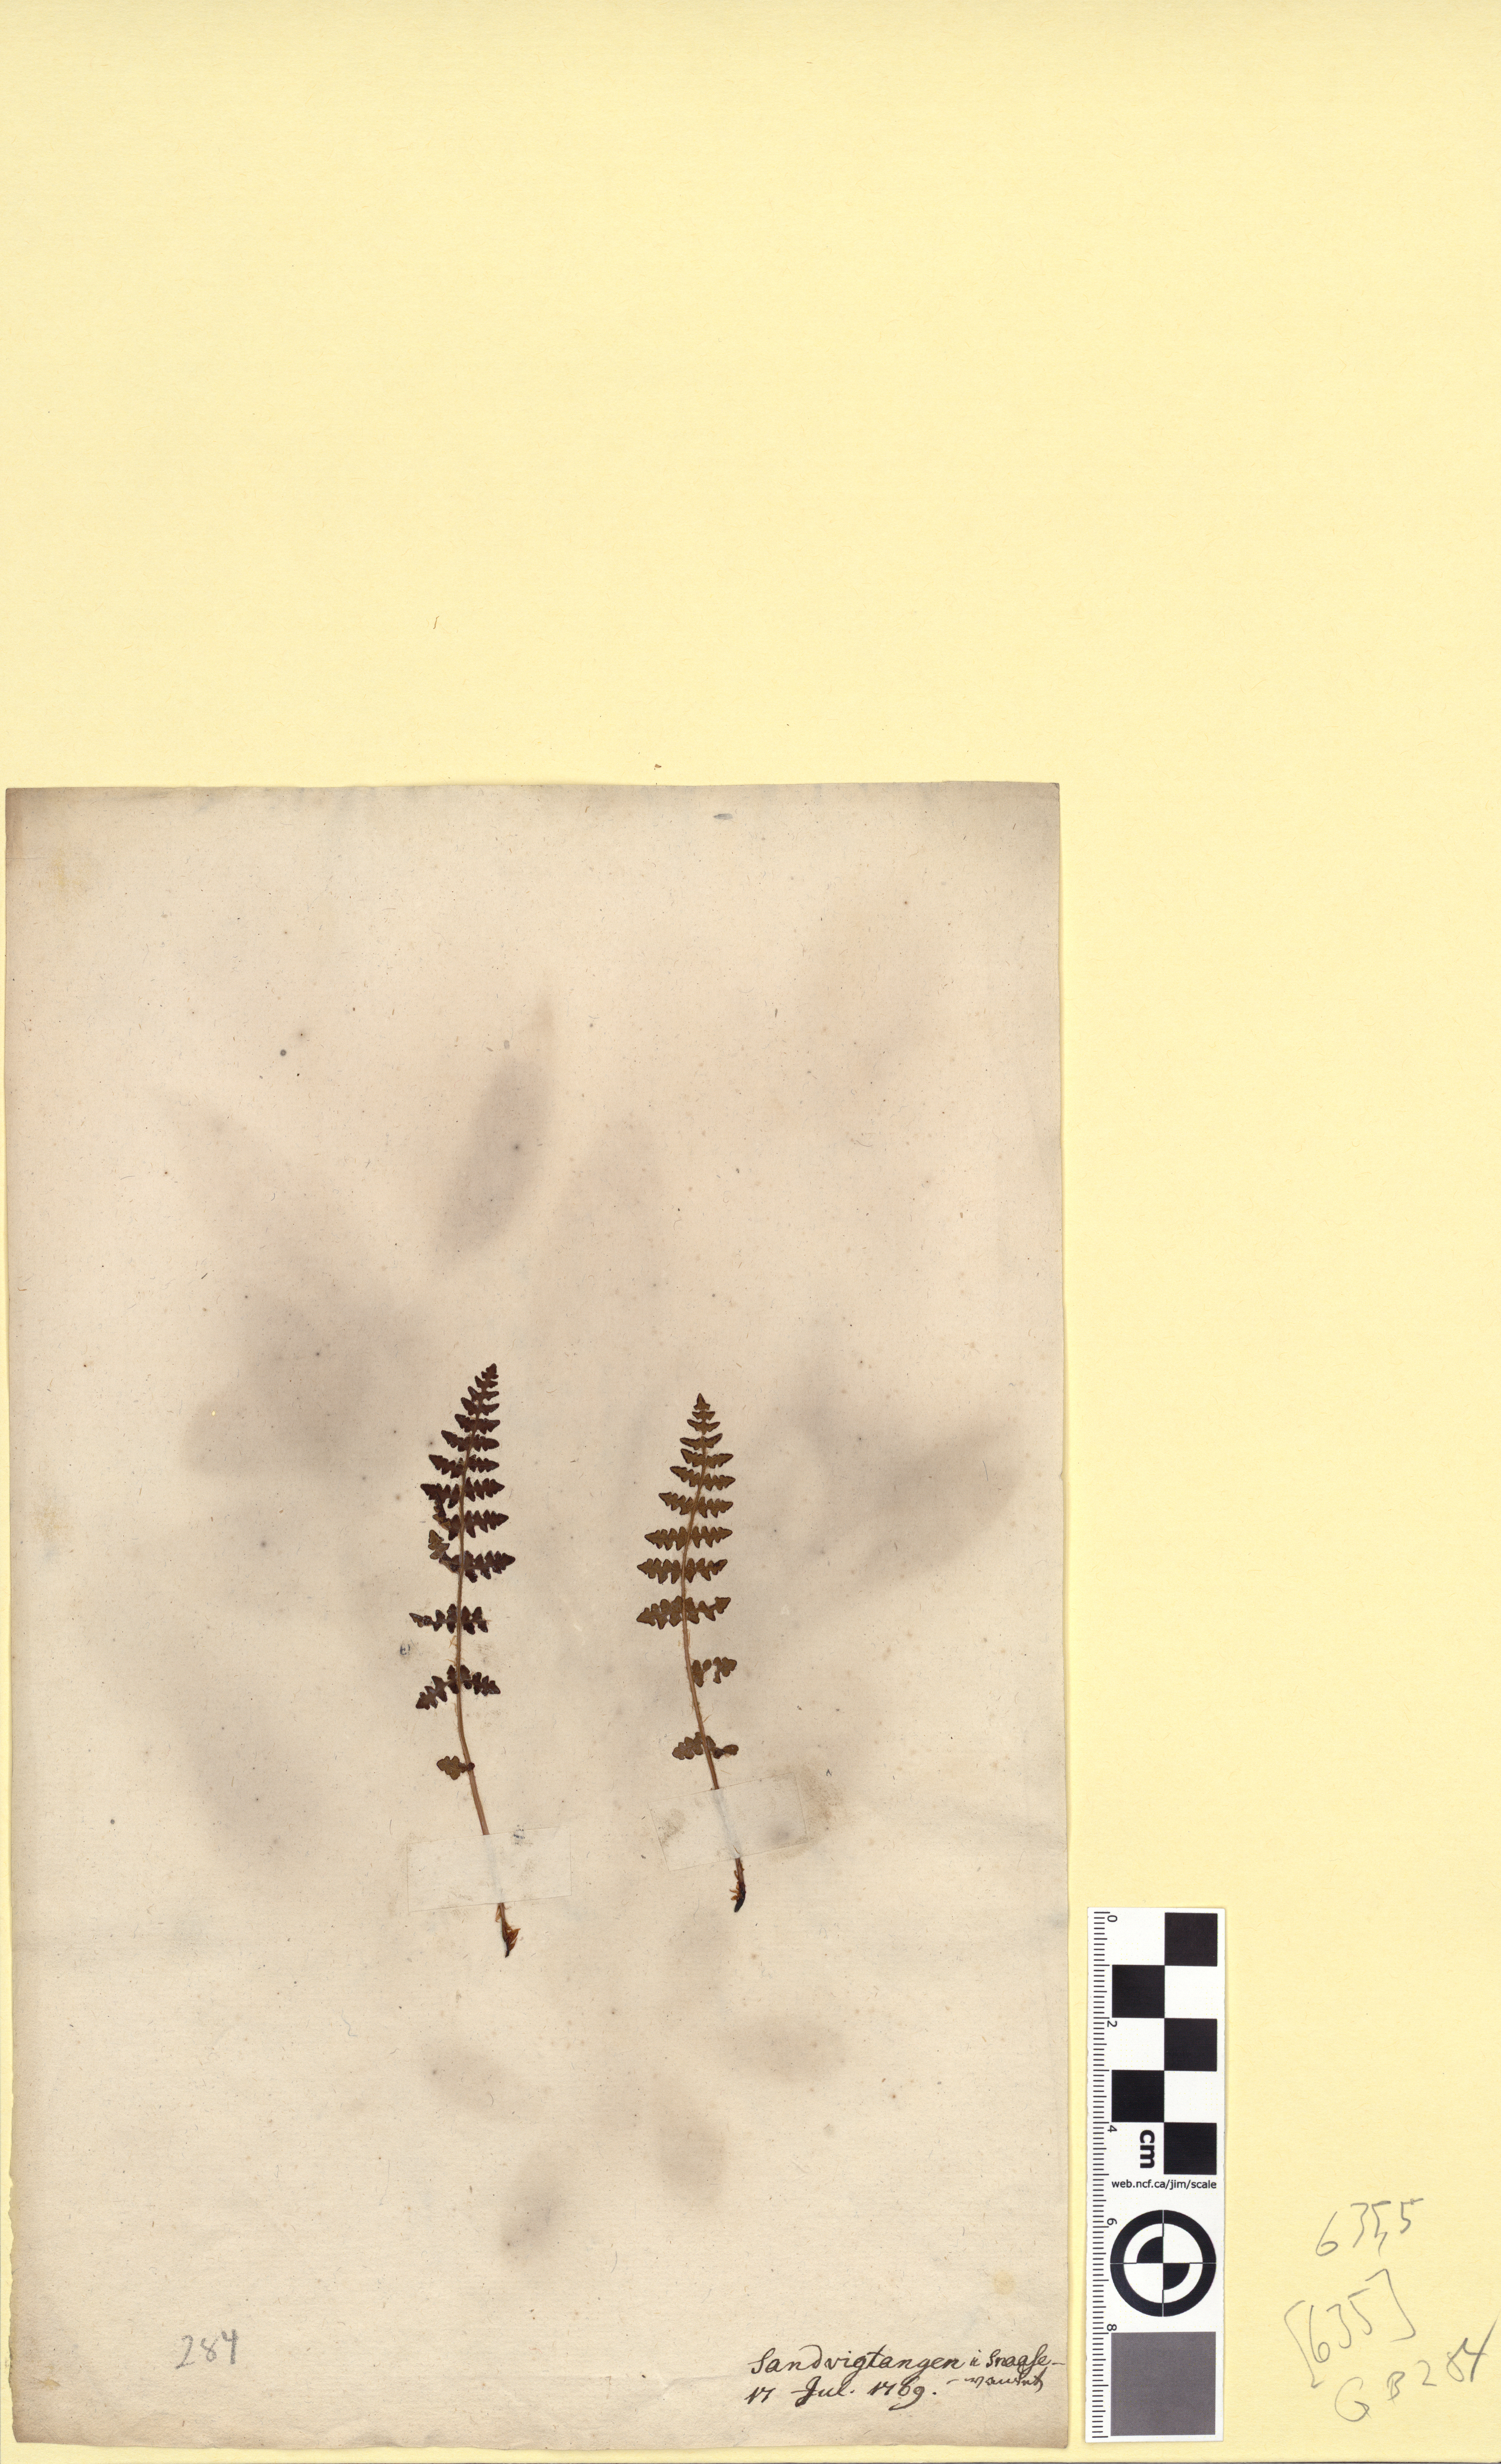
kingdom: Plantae
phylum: Tracheophyta
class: Polypodiopsida
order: Polypodiales
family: Woodsiaceae
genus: Woodsia
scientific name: Woodsia ilvensis
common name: Fragrant woodsia
